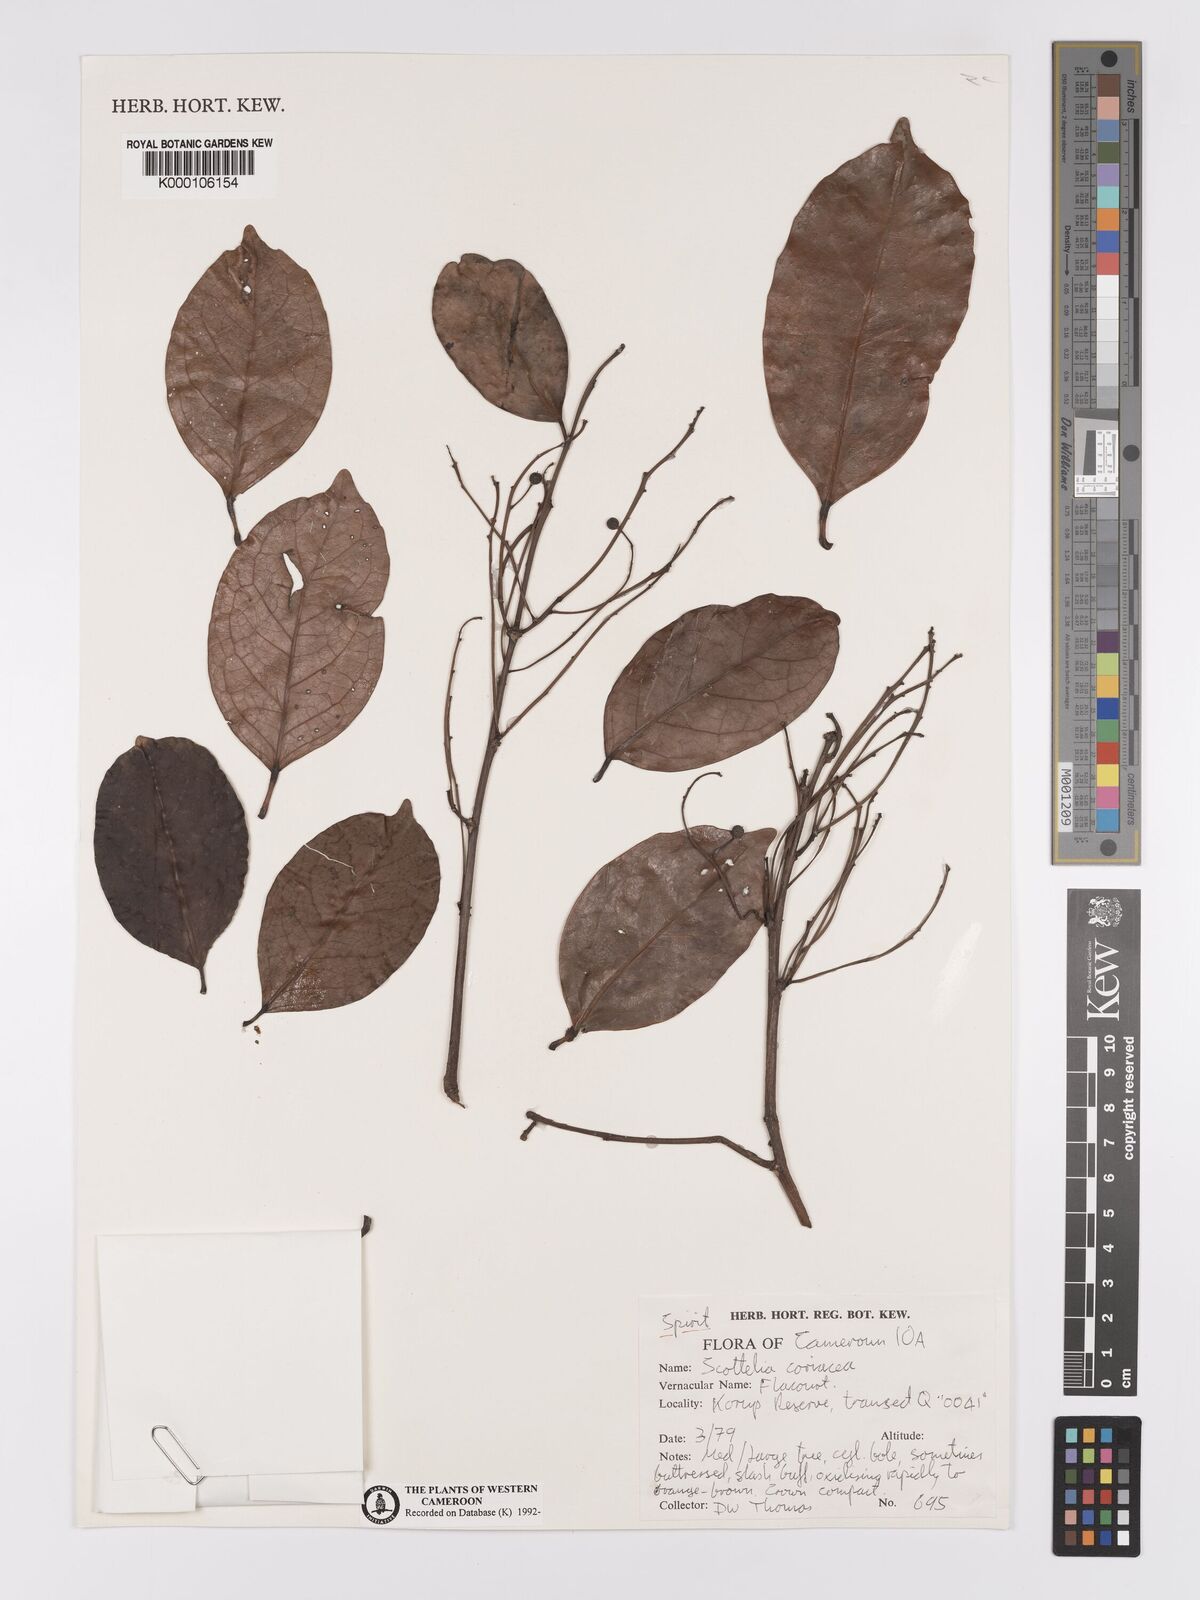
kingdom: Plantae
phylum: Tracheophyta
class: Magnoliopsida
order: Malpighiales
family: Achariaceae
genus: Scottellia
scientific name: Scottellia klaineana
